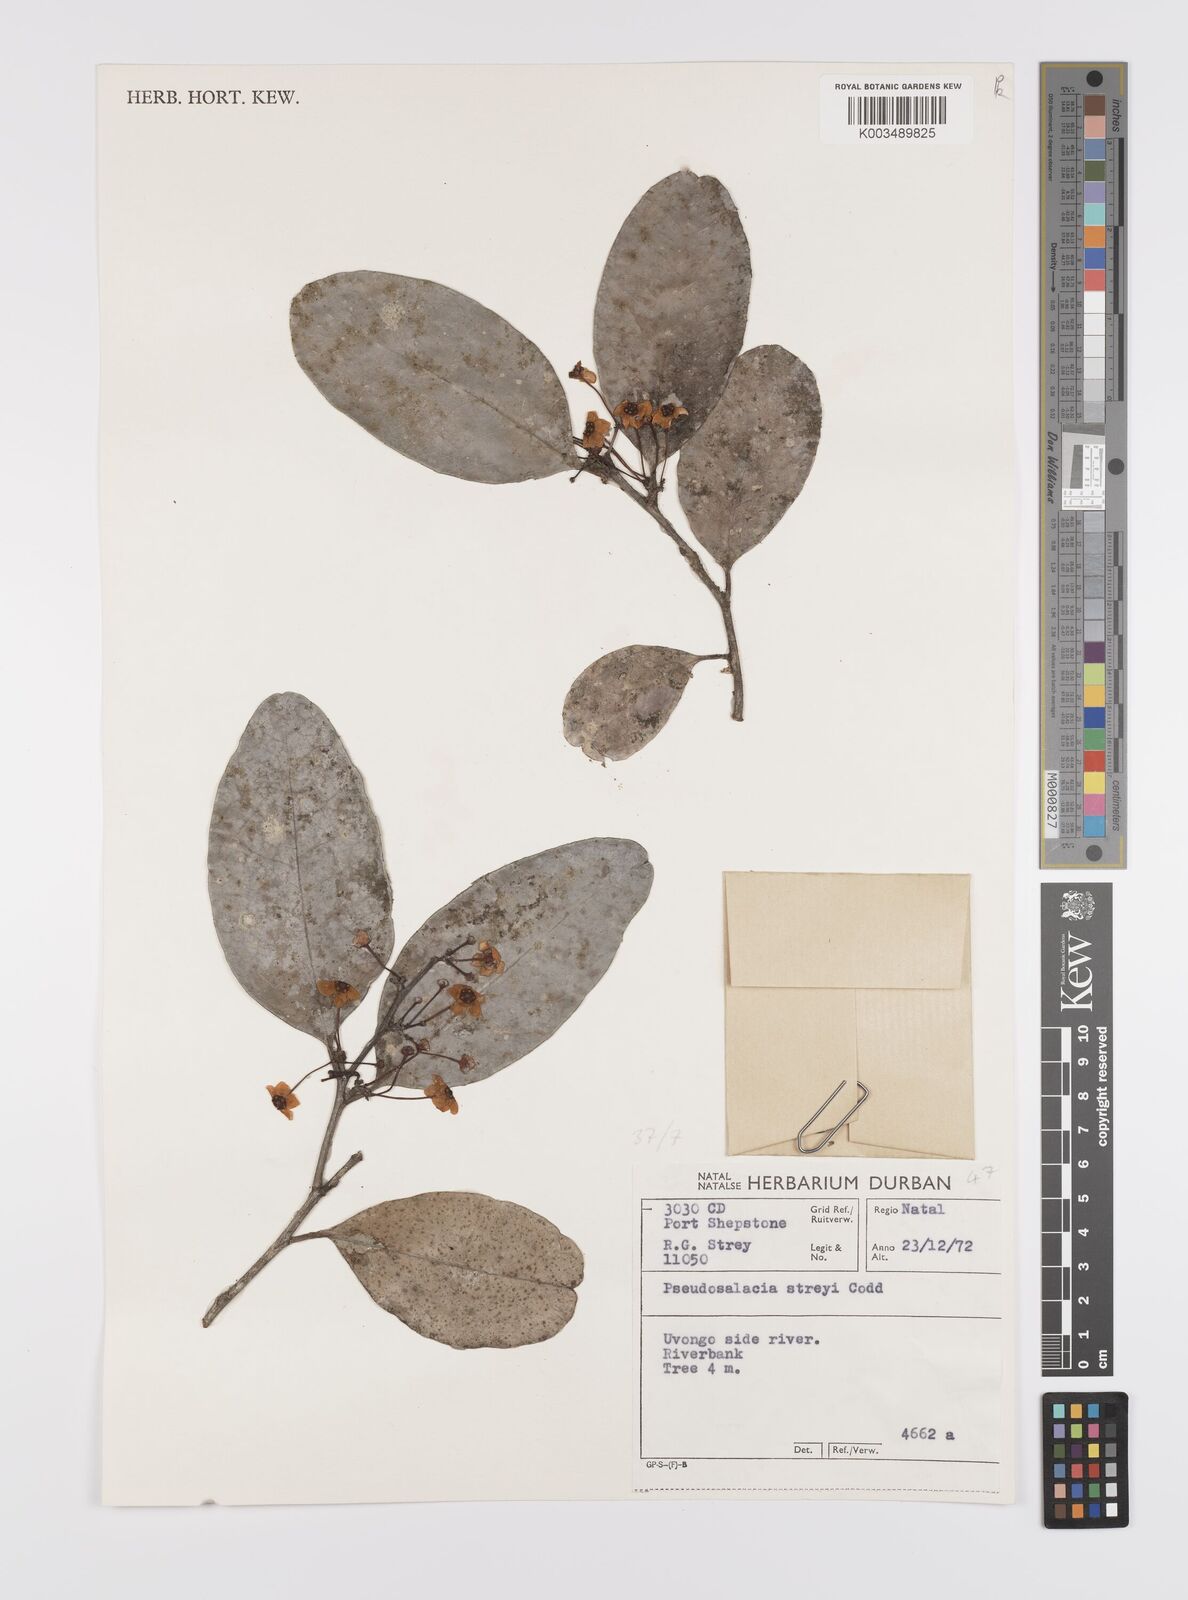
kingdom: Plantae
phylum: Tracheophyta
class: Magnoliopsida
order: Celastrales
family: Celastraceae
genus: Pseudosalacia
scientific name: Pseudosalacia streyi
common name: Bastard lemon
